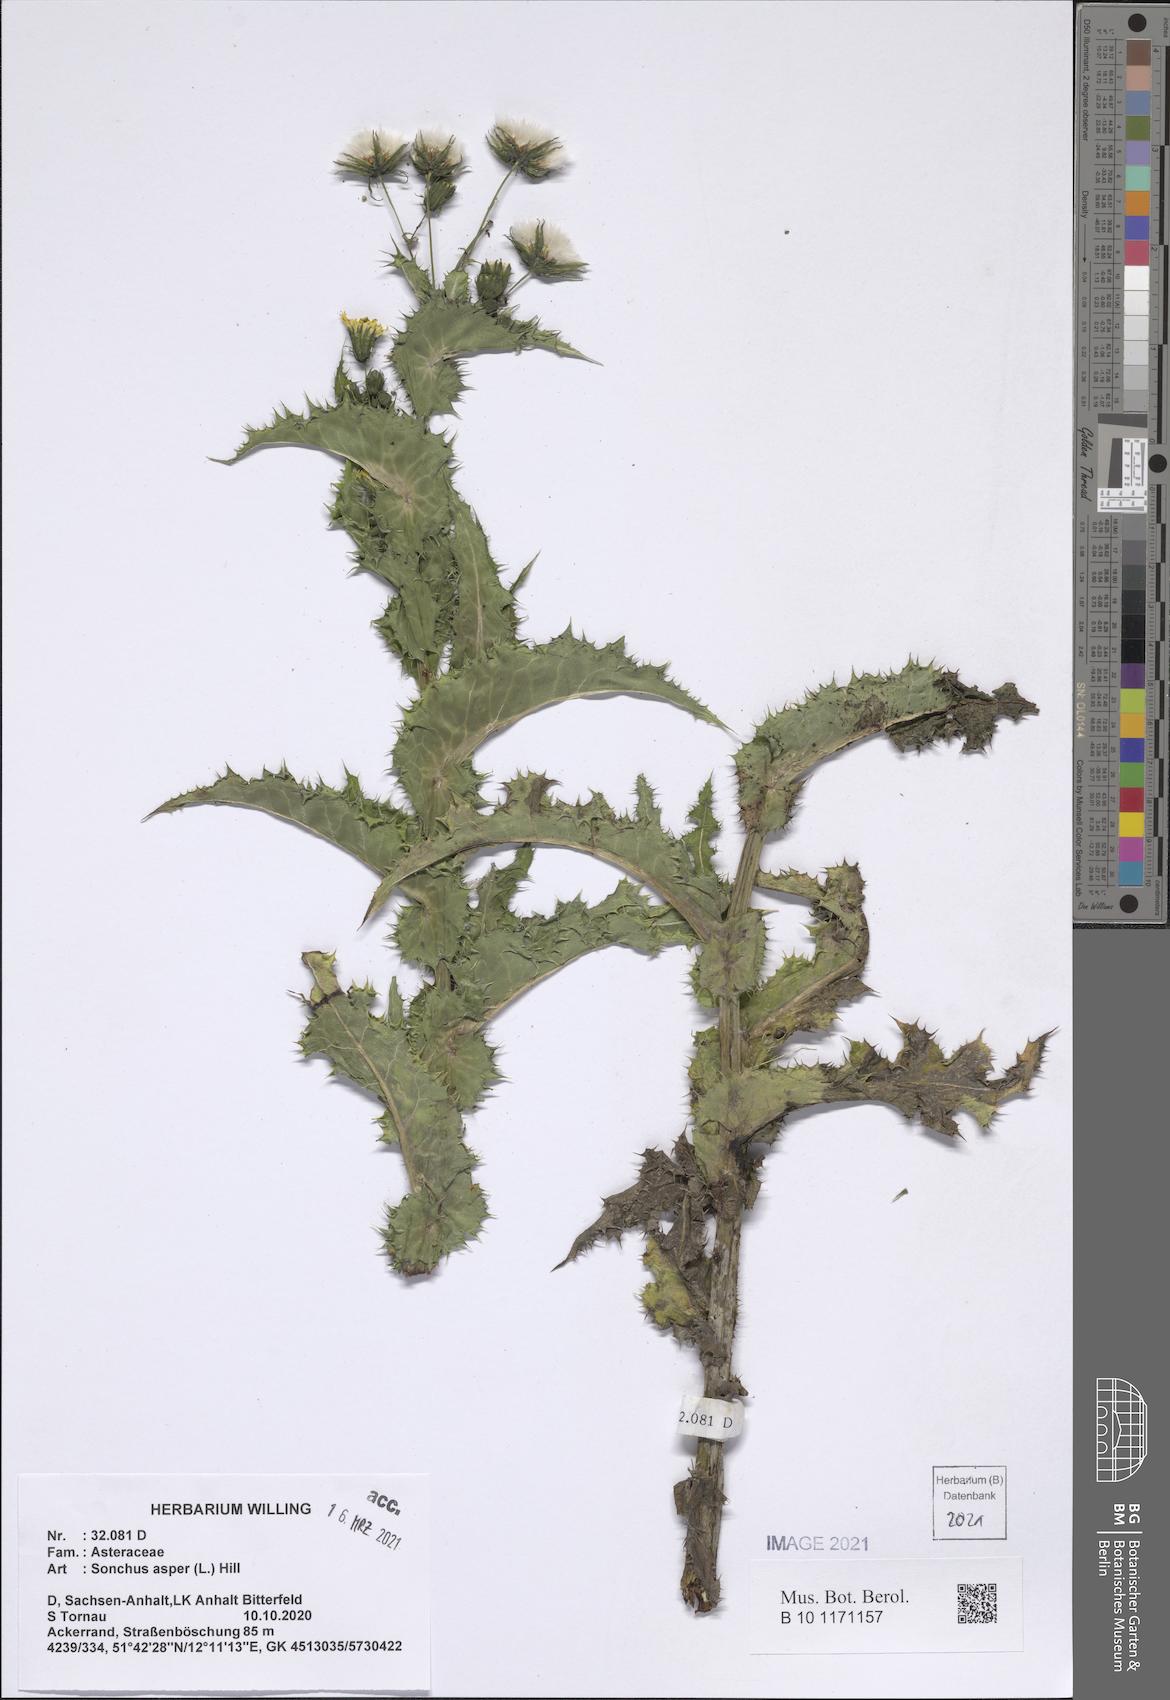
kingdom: Plantae
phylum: Tracheophyta
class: Magnoliopsida
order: Asterales
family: Asteraceae
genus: Sonchus
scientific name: Sonchus asper
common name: Prickly sow-thistle
